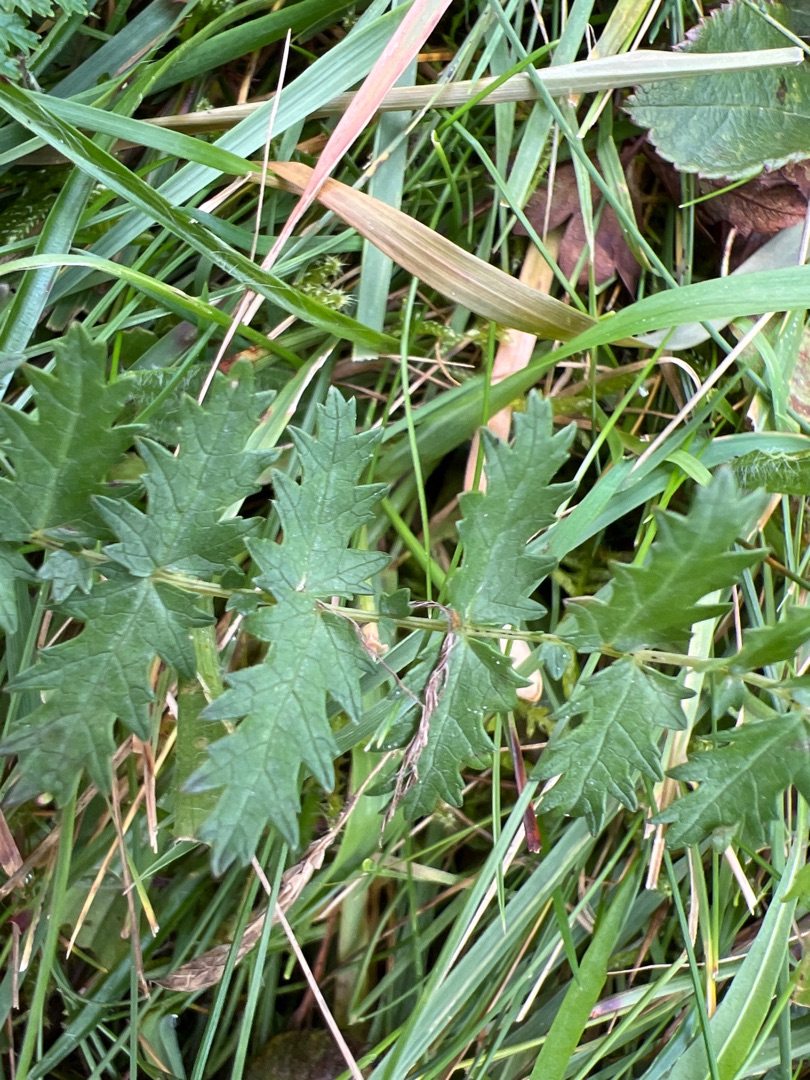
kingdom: Plantae
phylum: Tracheophyta
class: Magnoliopsida
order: Rosales
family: Rosaceae
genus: Filipendula
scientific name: Filipendula vulgaris
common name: Knoldet mjødurt
